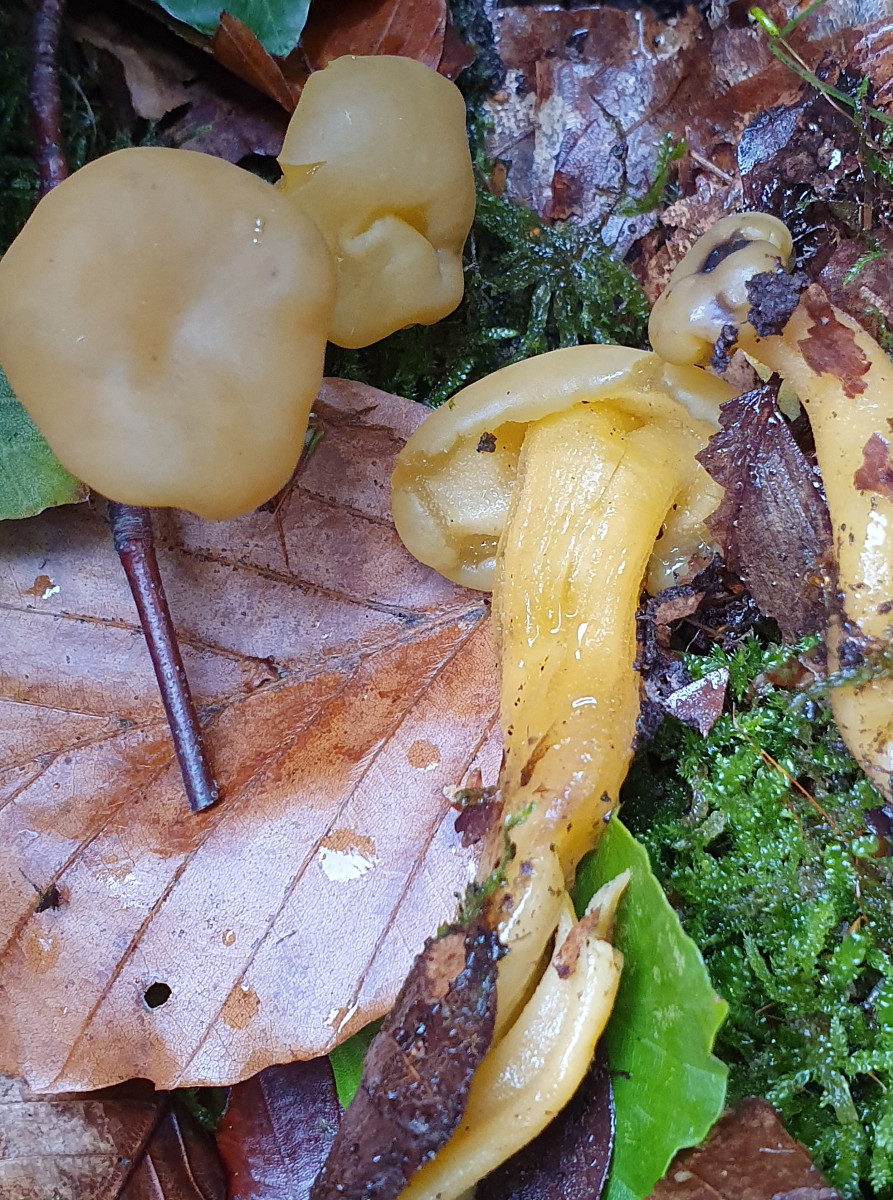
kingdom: Fungi
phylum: Ascomycota
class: Leotiomycetes
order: Leotiales
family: Leotiaceae
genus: Leotia
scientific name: Leotia lubrica
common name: ravsvamp
